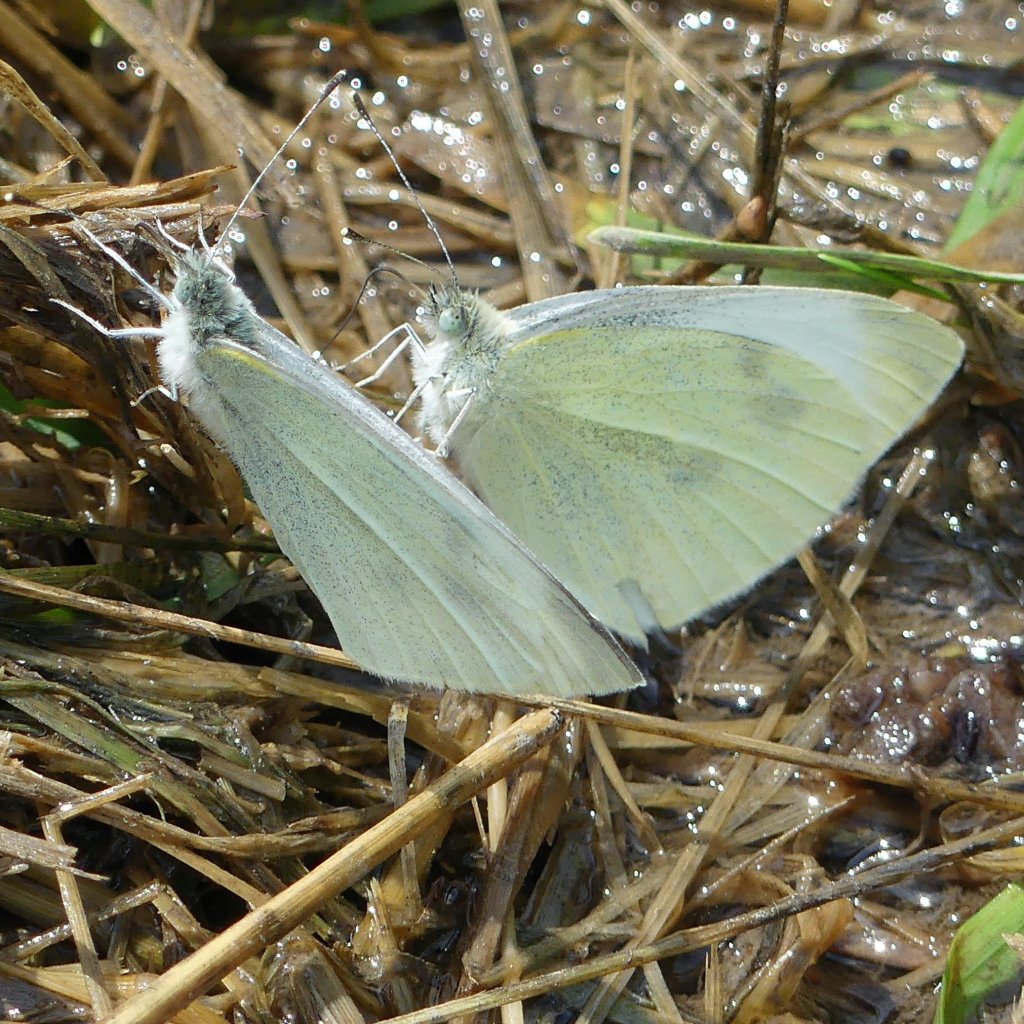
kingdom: Animalia
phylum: Arthropoda
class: Insecta
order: Lepidoptera
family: Pieridae
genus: Pieris
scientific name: Pieris rapae
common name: Cabbage White
